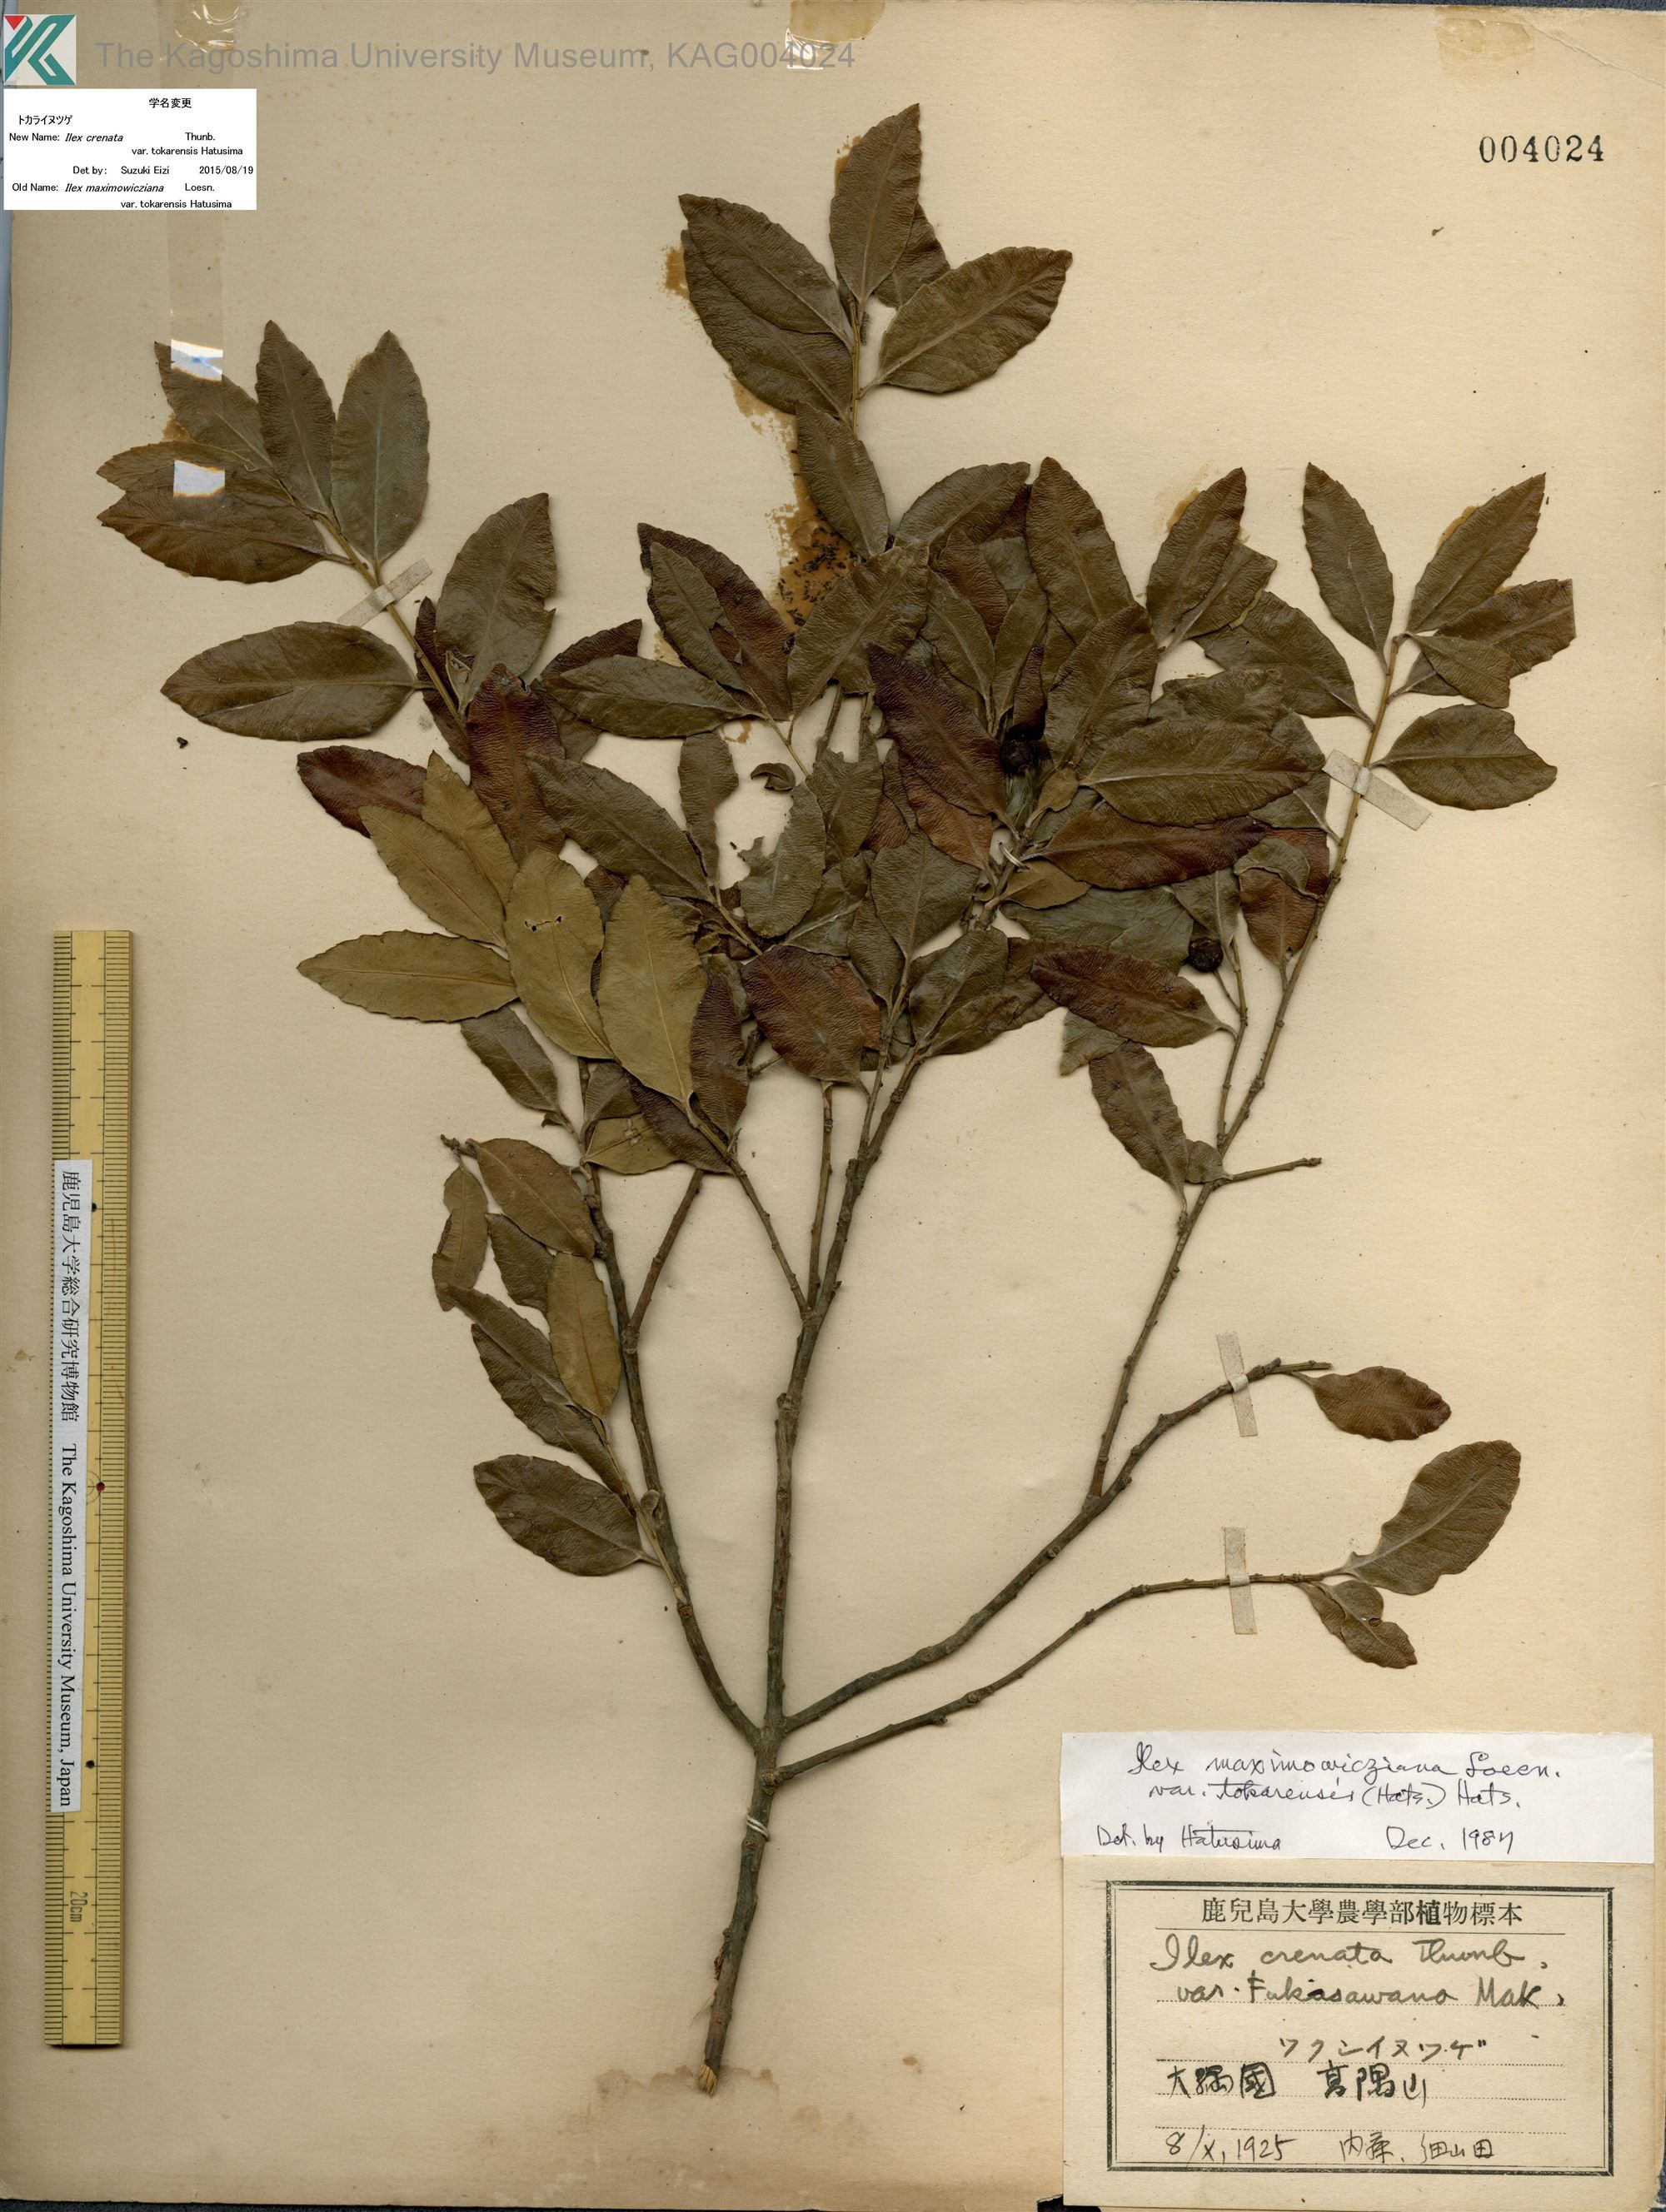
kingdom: Plantae
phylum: Tracheophyta
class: Magnoliopsida
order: Aquifoliales
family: Aquifoliaceae
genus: Ilex
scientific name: Ilex crenata
